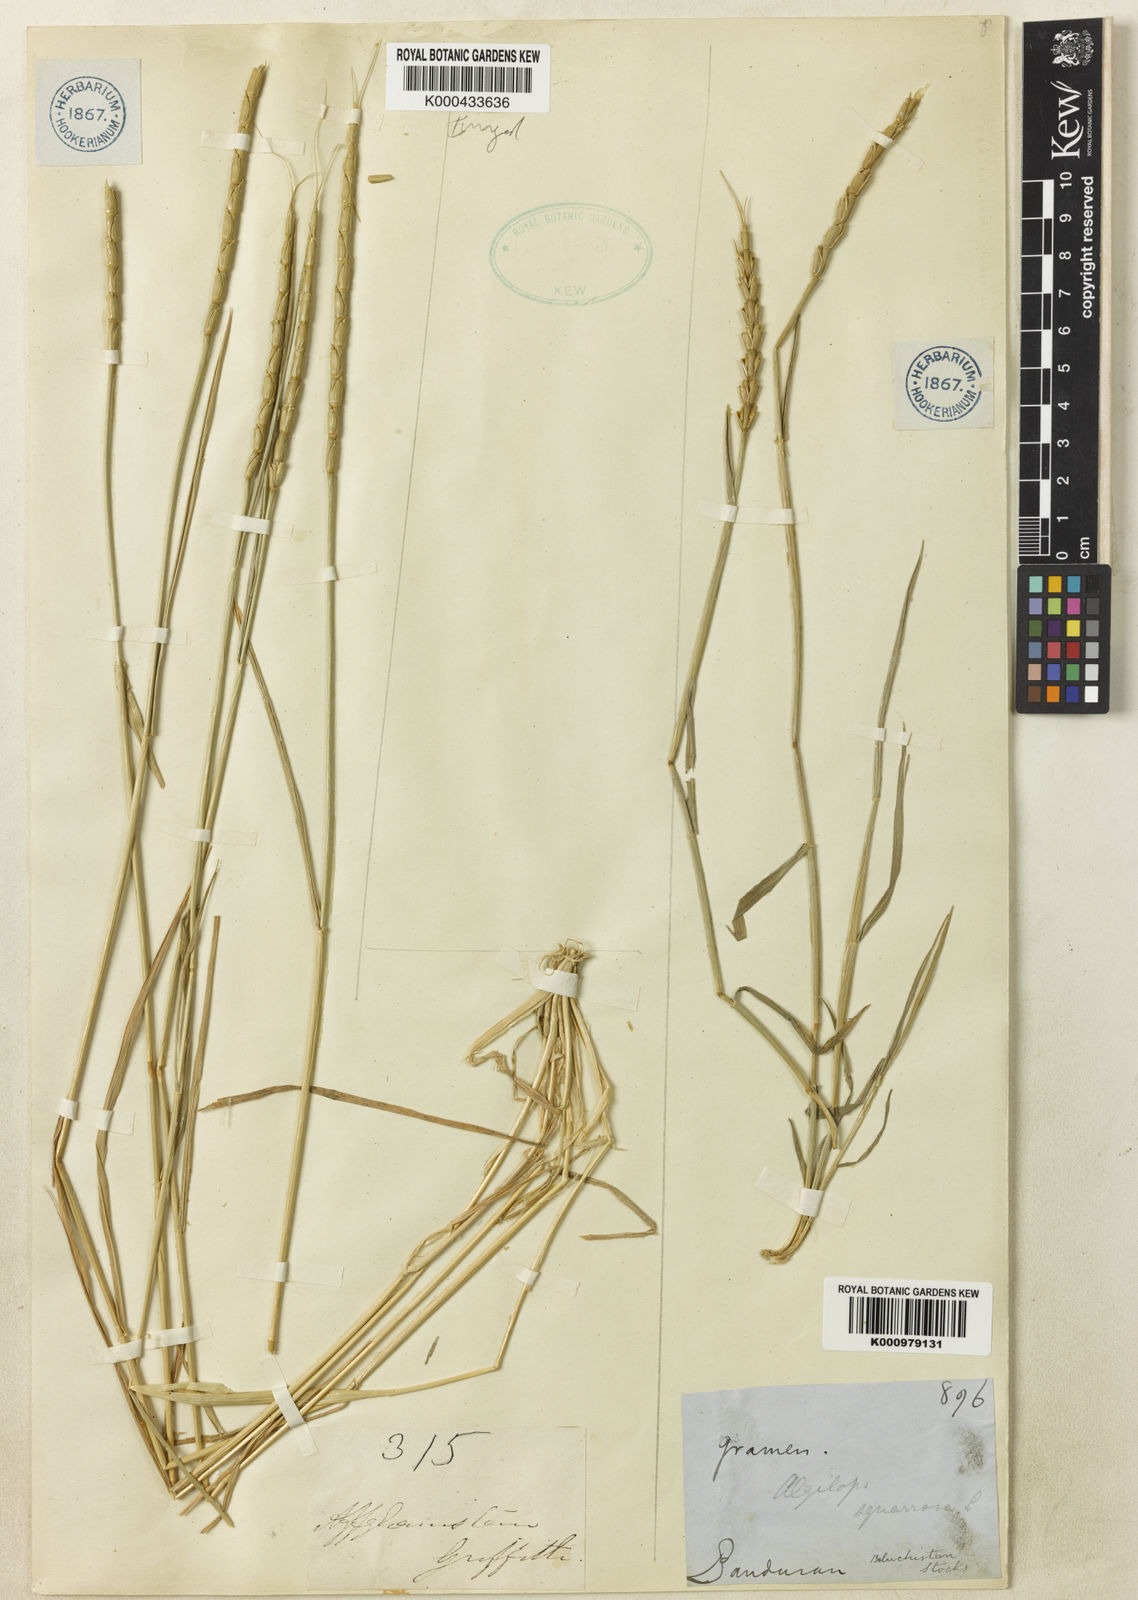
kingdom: Plantae
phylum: Tracheophyta
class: Liliopsida
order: Poales
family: Poaceae
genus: Aegilops
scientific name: Aegilops tauschii
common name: Rough-spike hard grass
